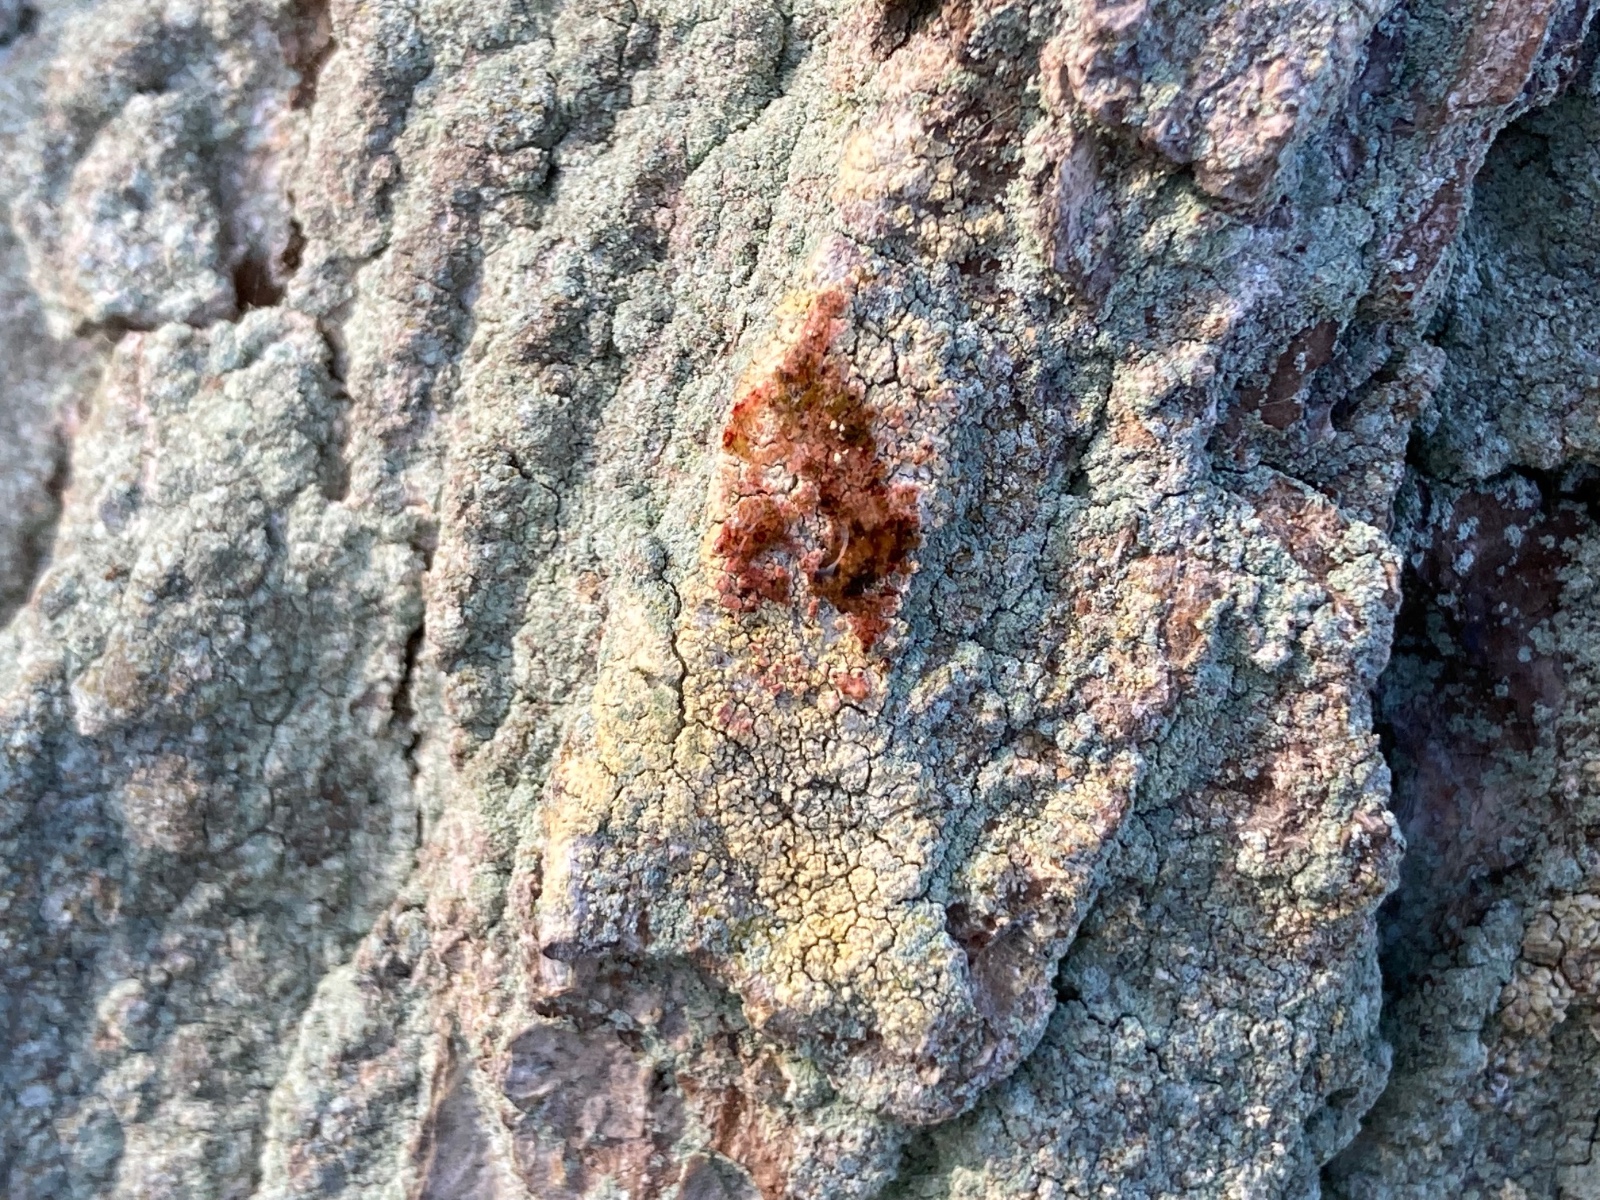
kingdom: Fungi
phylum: Ascomycota
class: Coniocybomycetes
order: Coniocybales
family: Coniocybaceae
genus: Chaenotheca
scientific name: Chaenotheca ferruginea
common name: rustbrun knappenålslav
